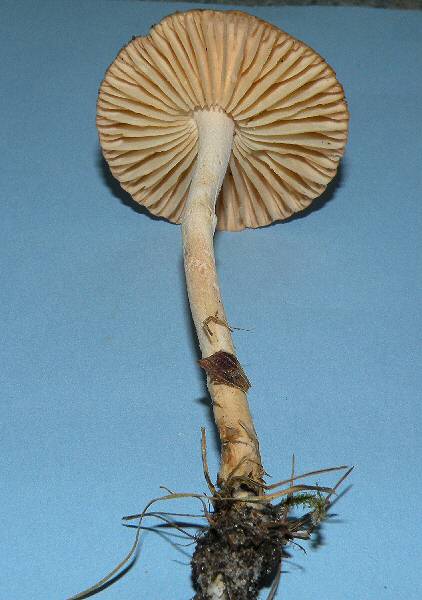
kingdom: Fungi
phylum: Basidiomycota
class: Agaricomycetes
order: Agaricales
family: Marasmiaceae
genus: Marasmius
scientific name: Marasmius oreades
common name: elledans-bruskhat
